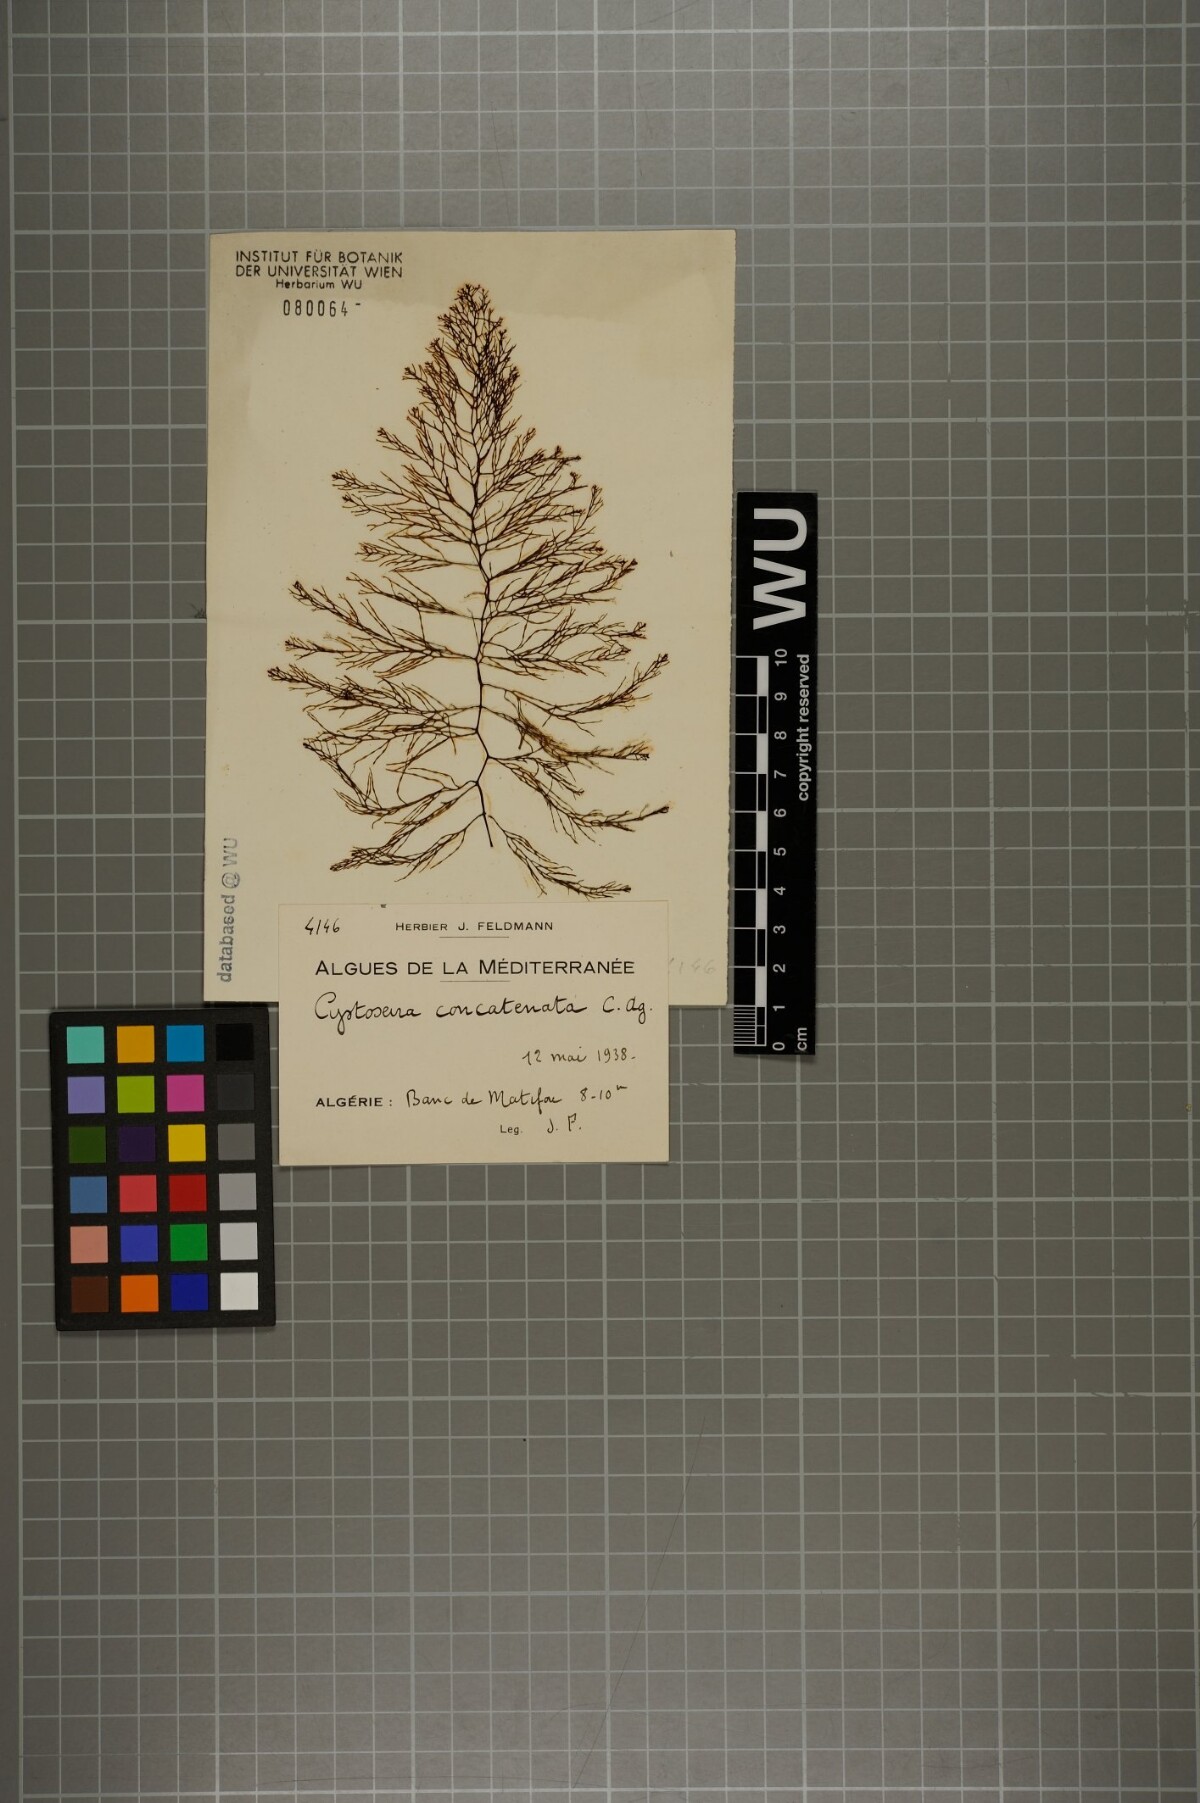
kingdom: Chromista
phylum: Ochrophyta
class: Phaeophyceae
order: Fucales
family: Sargassaceae
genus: Cystoseira
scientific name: Cystoseira foeniculacea
